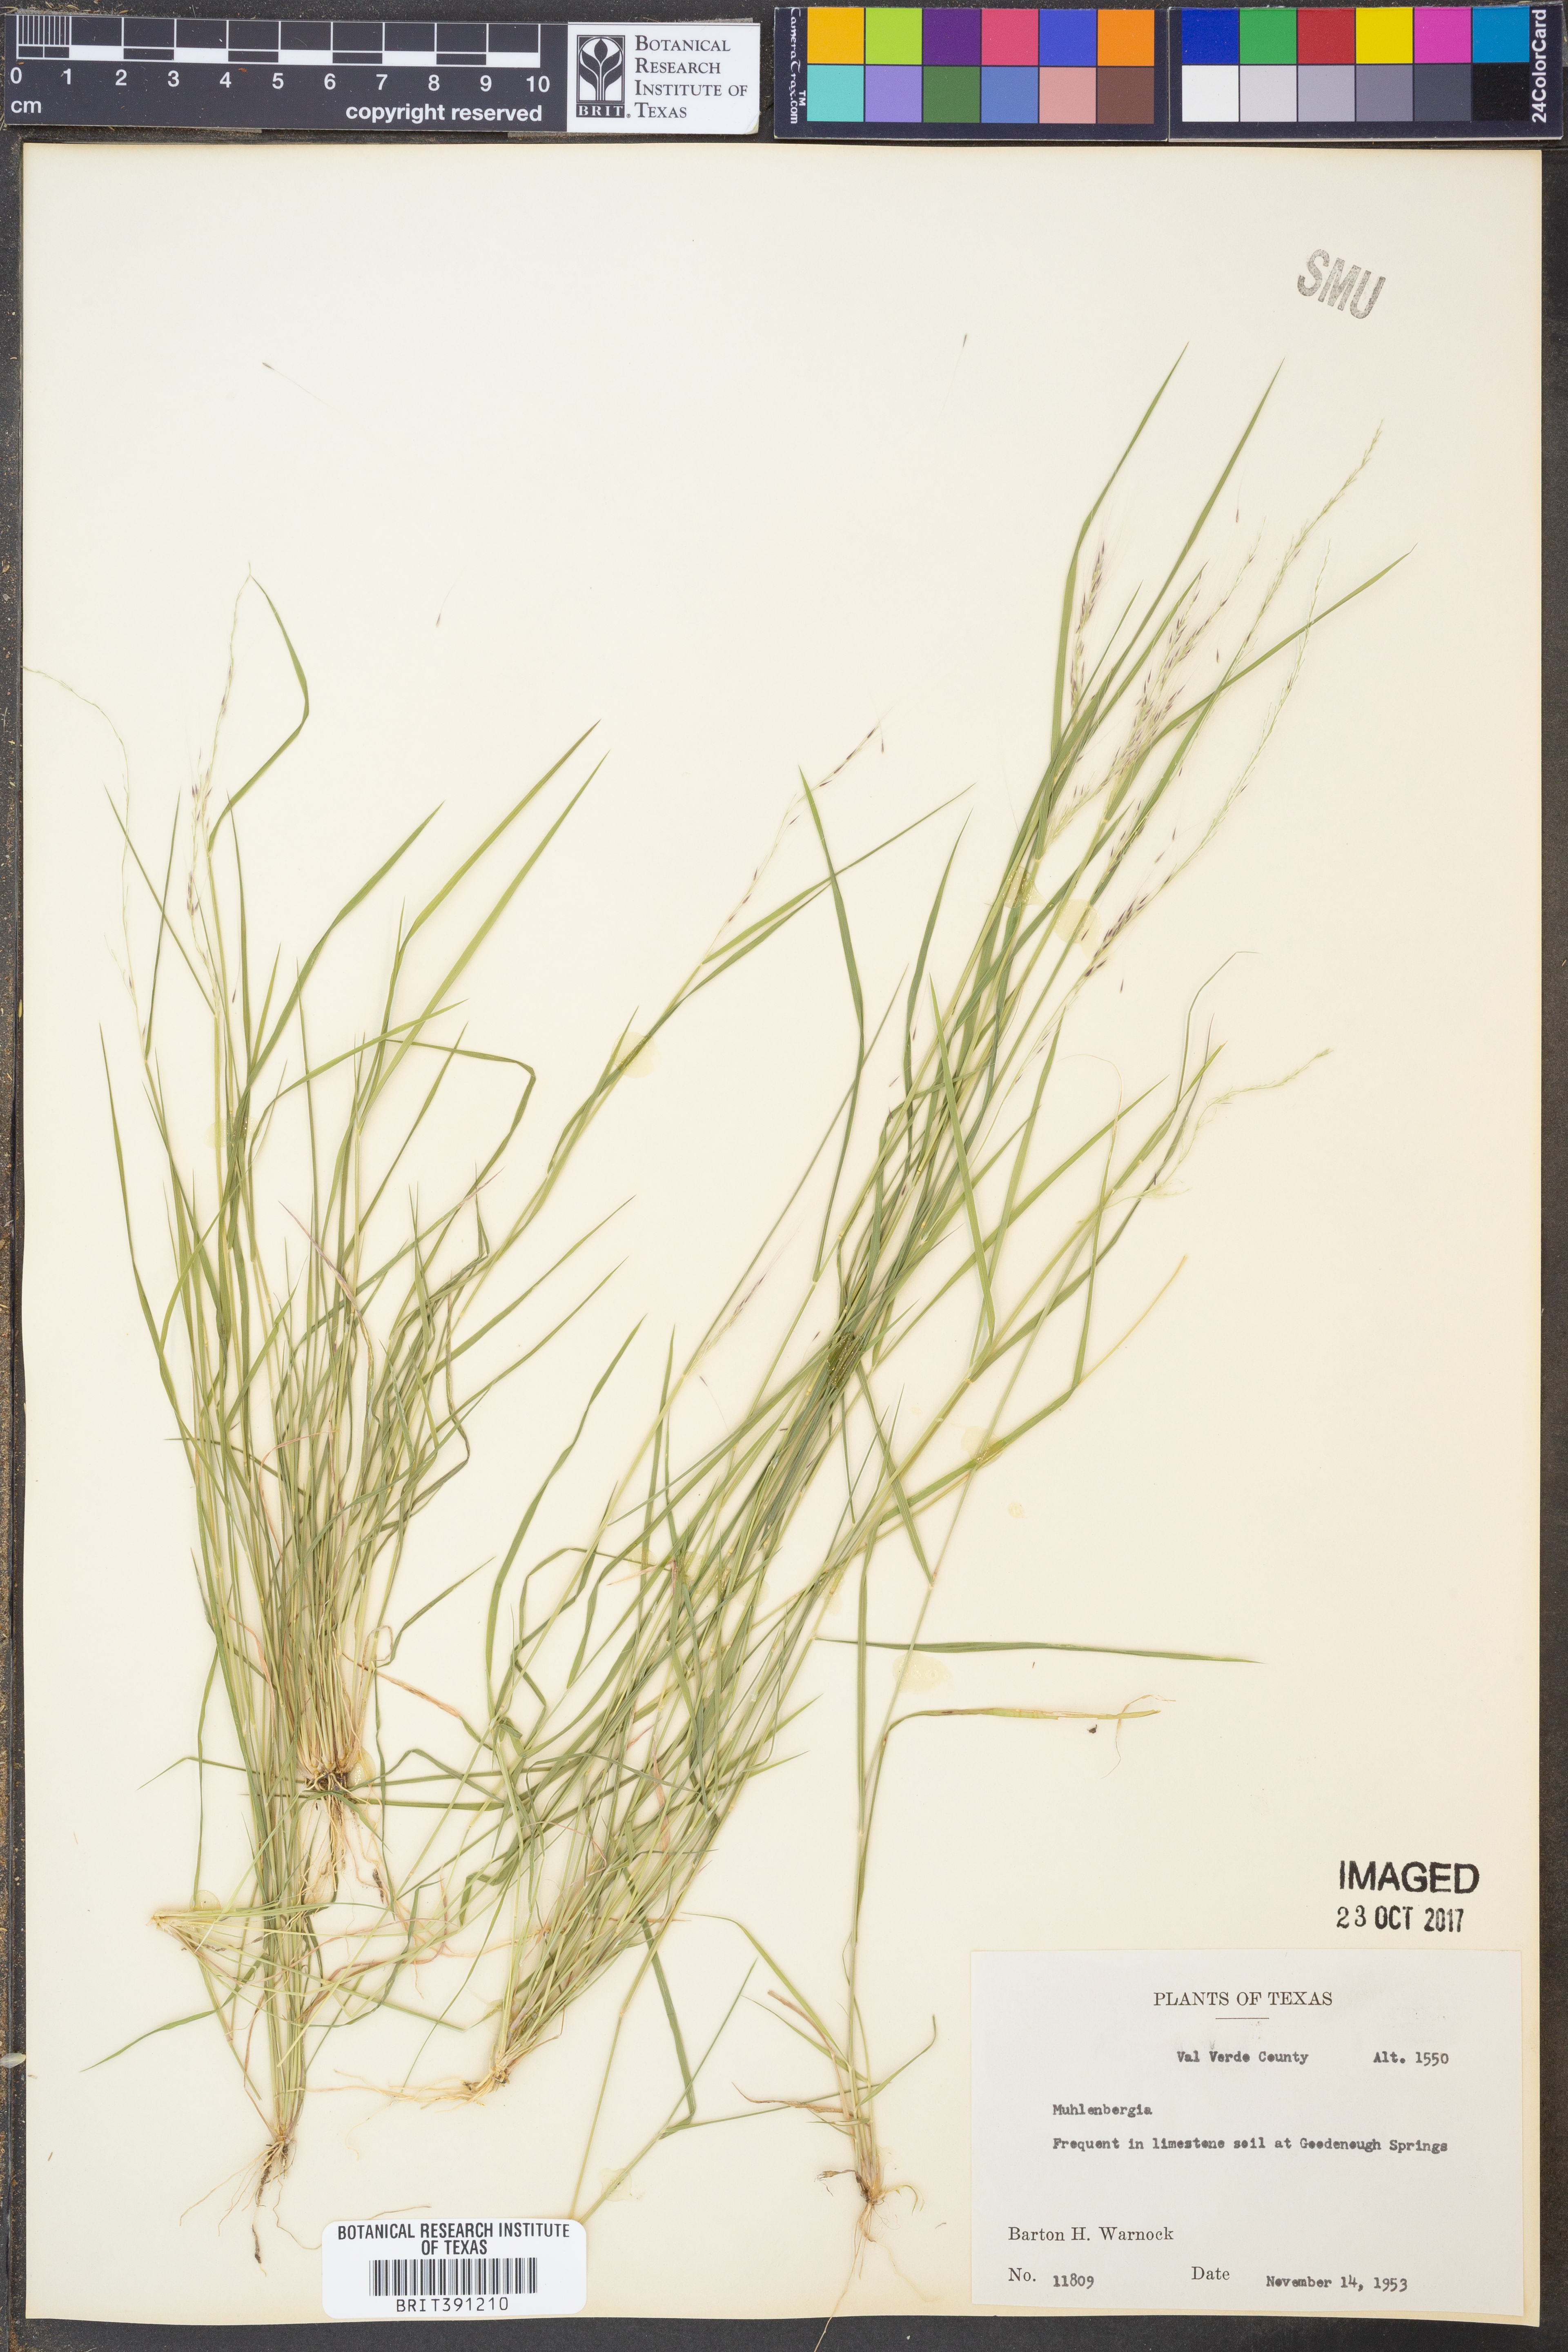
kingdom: Plantae
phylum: Tracheophyta
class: Liliopsida
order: Poales
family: Poaceae
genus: Muhlenbergia
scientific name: Muhlenbergia
